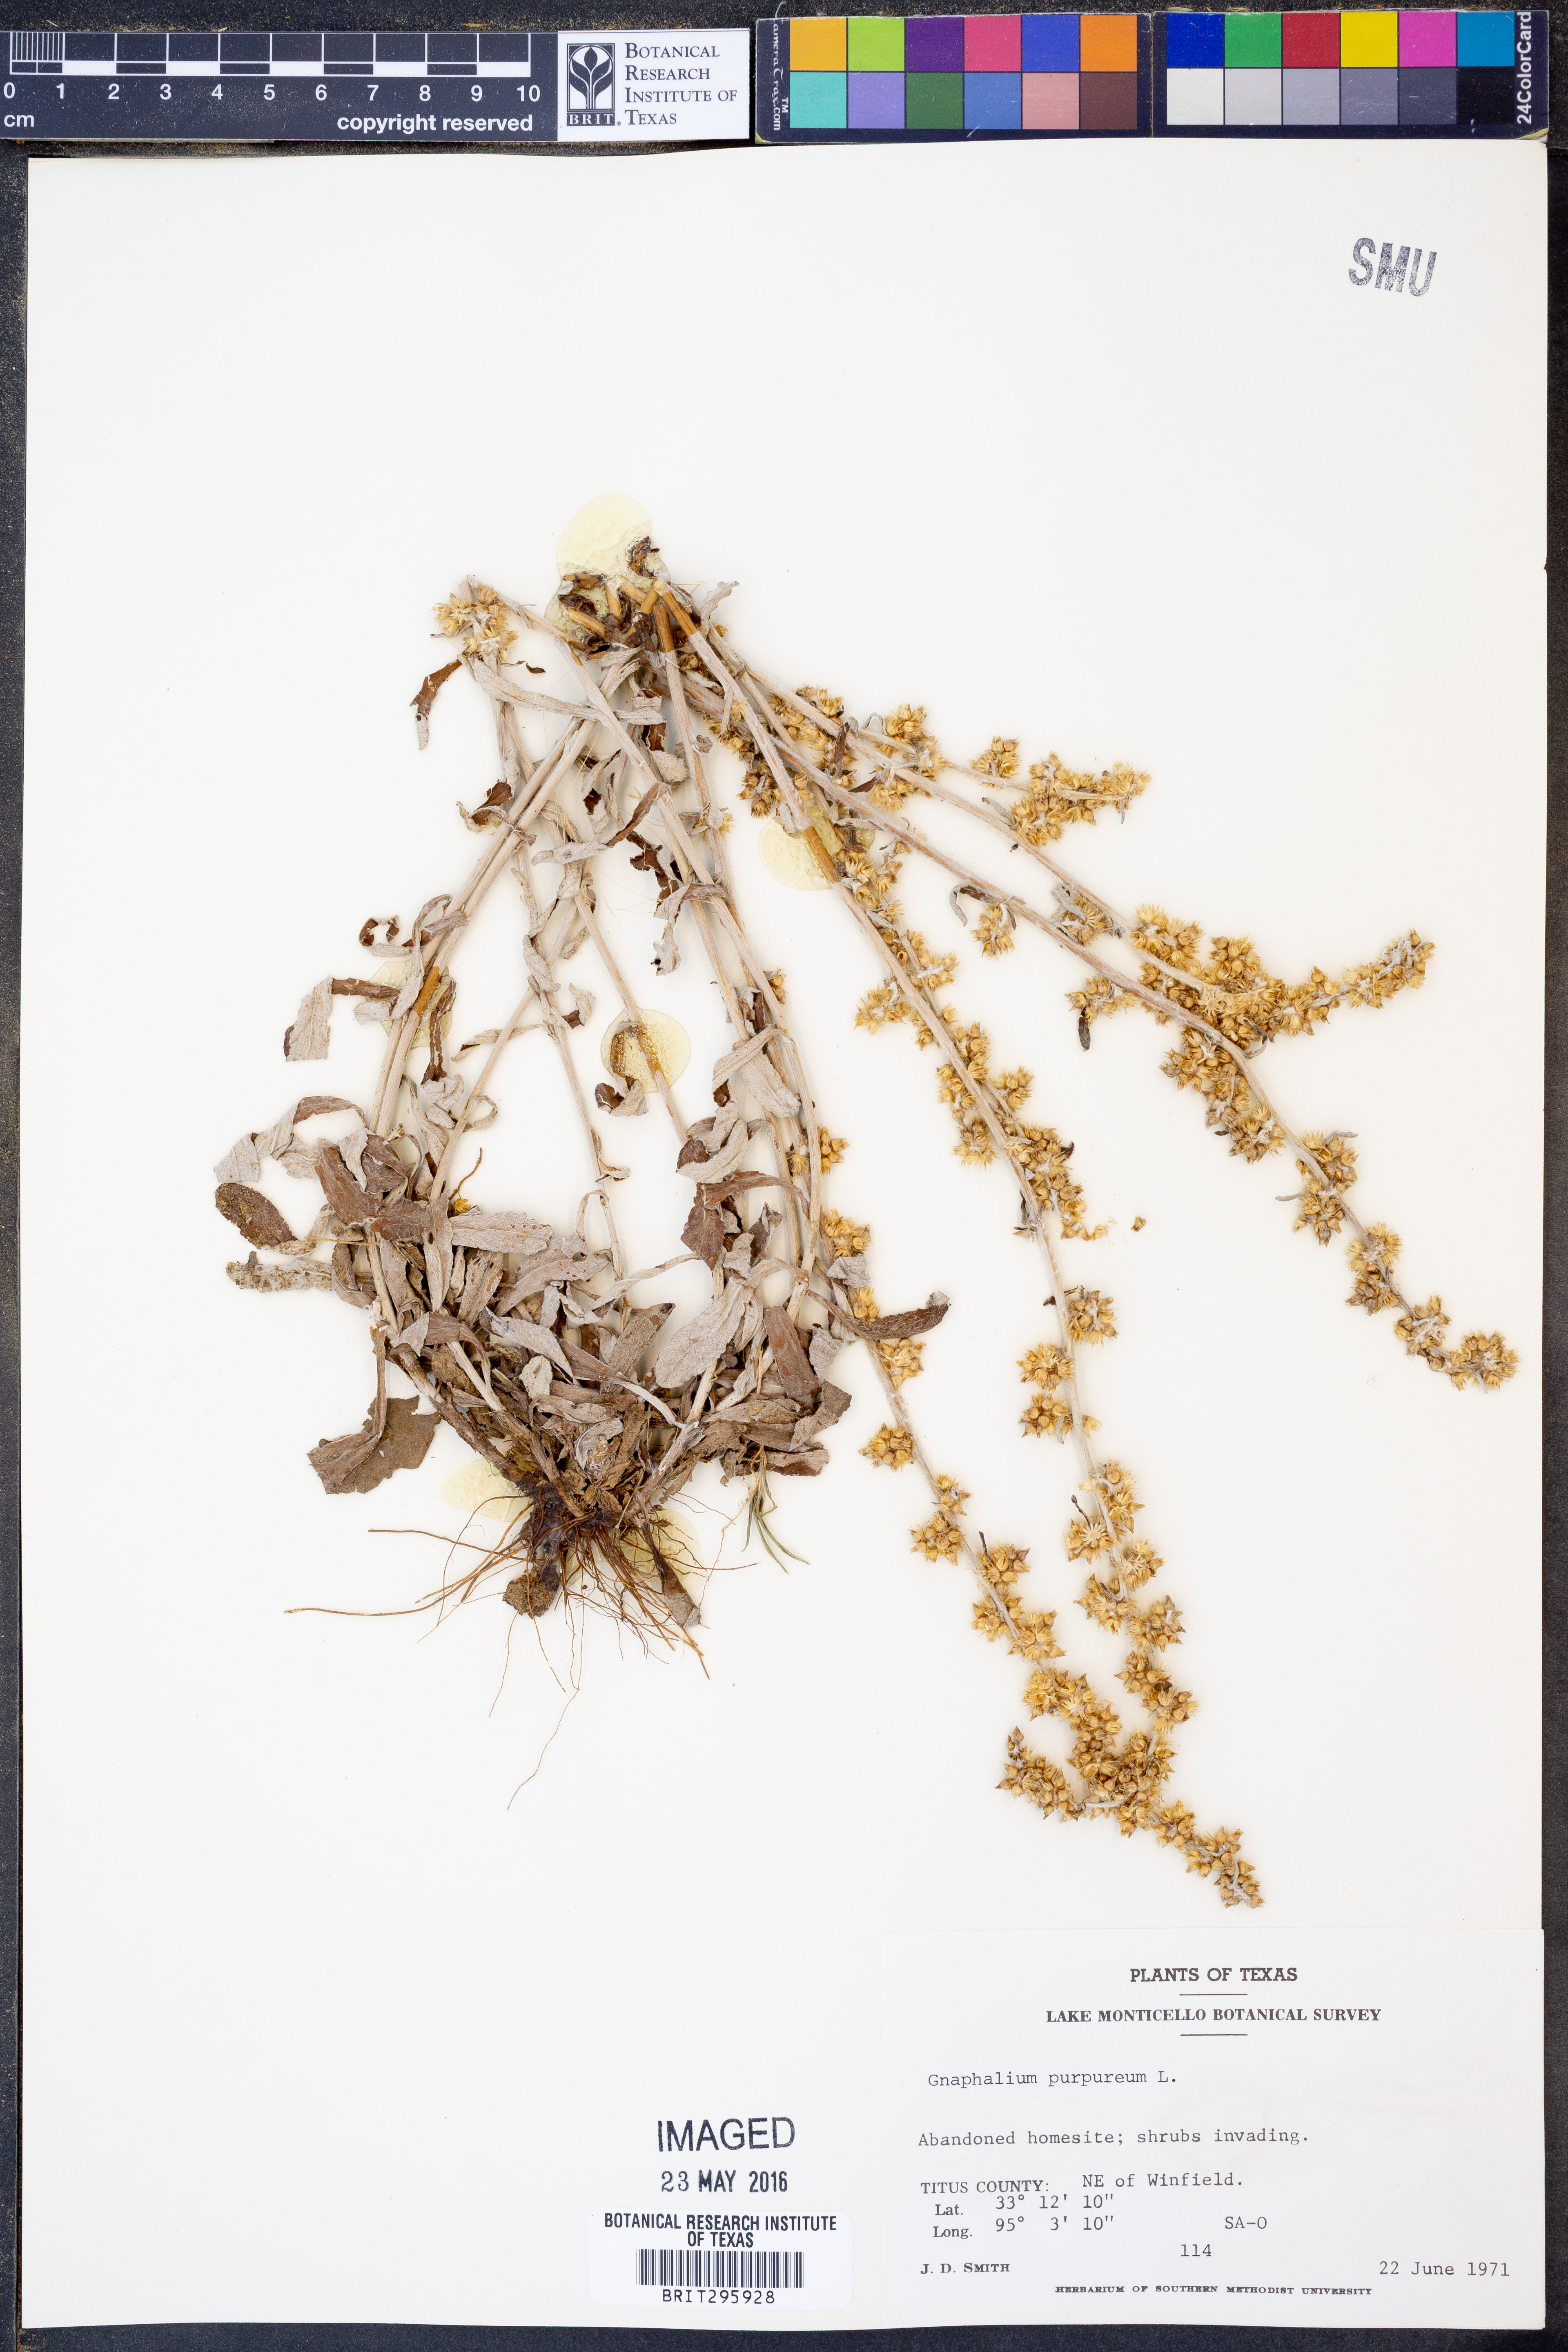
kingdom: Plantae
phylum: Tracheophyta
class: Magnoliopsida
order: Asterales
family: Asteraceae
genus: Gamochaeta
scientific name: Gamochaeta purpurea
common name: Purple cudweed
